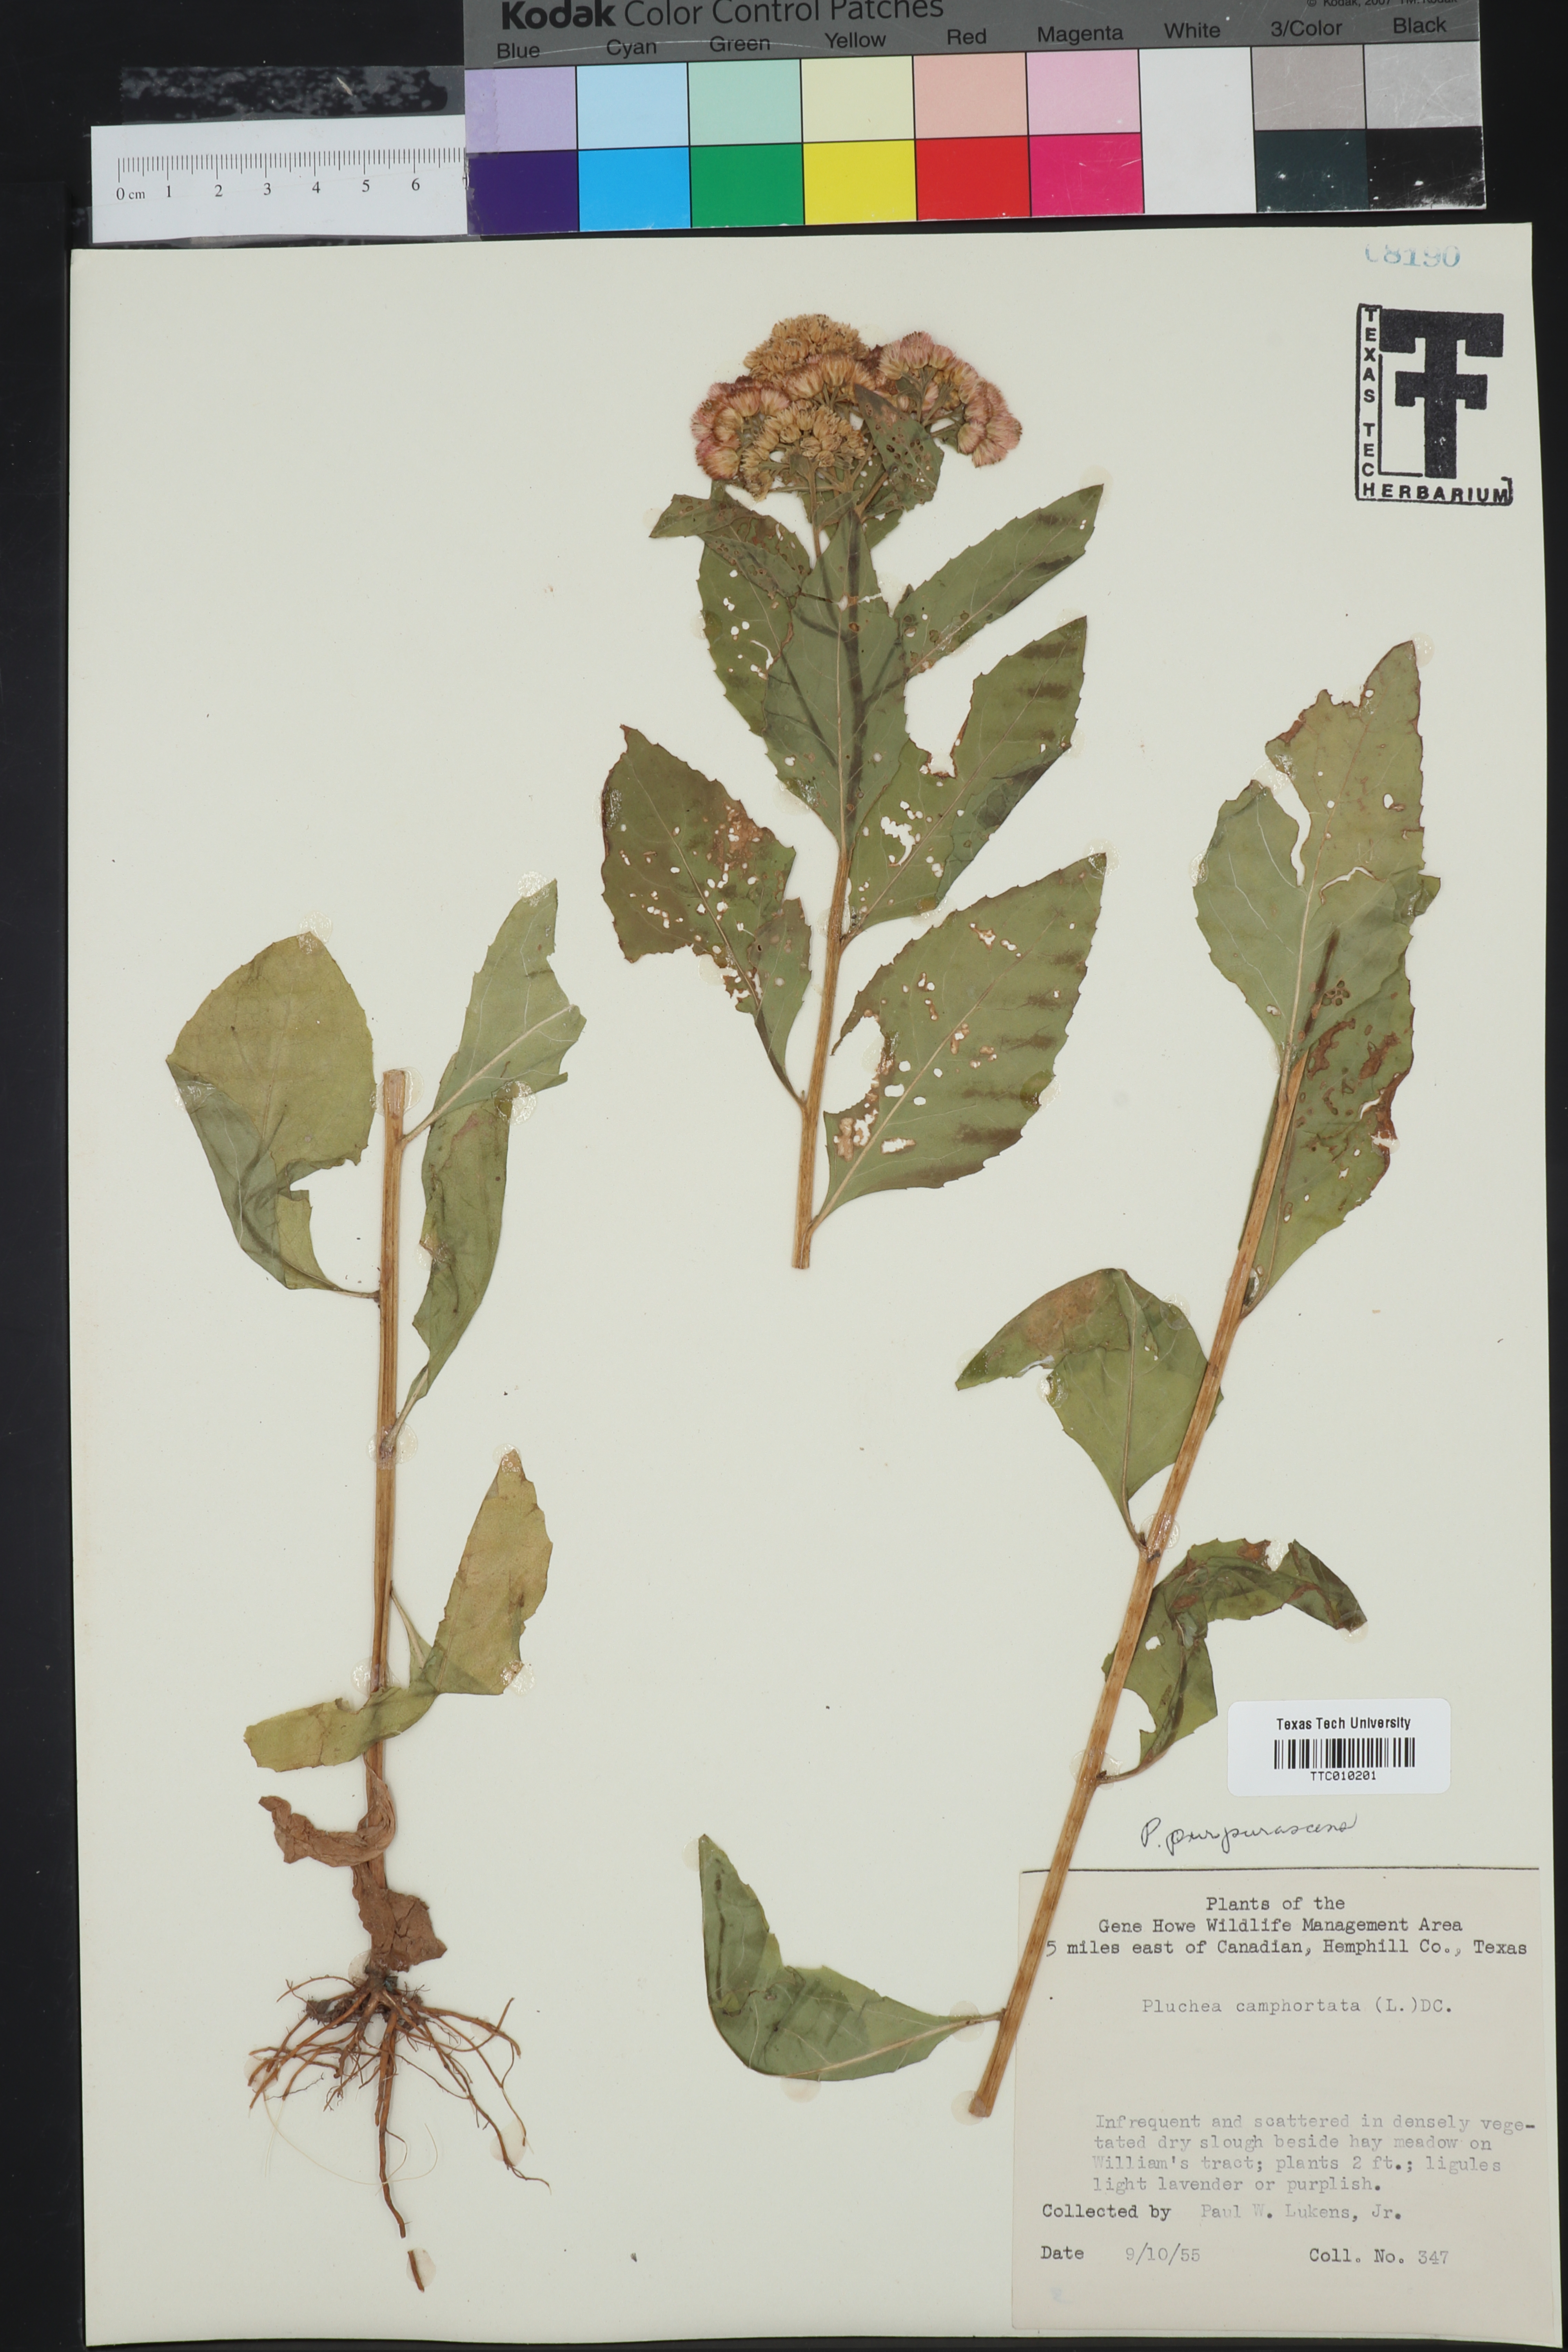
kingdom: Plantae
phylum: Tracheophyta
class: Magnoliopsida
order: Asterales
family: Asteraceae
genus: Pluchea
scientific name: Pluchea odorata
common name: Saltmarsh fleabane
